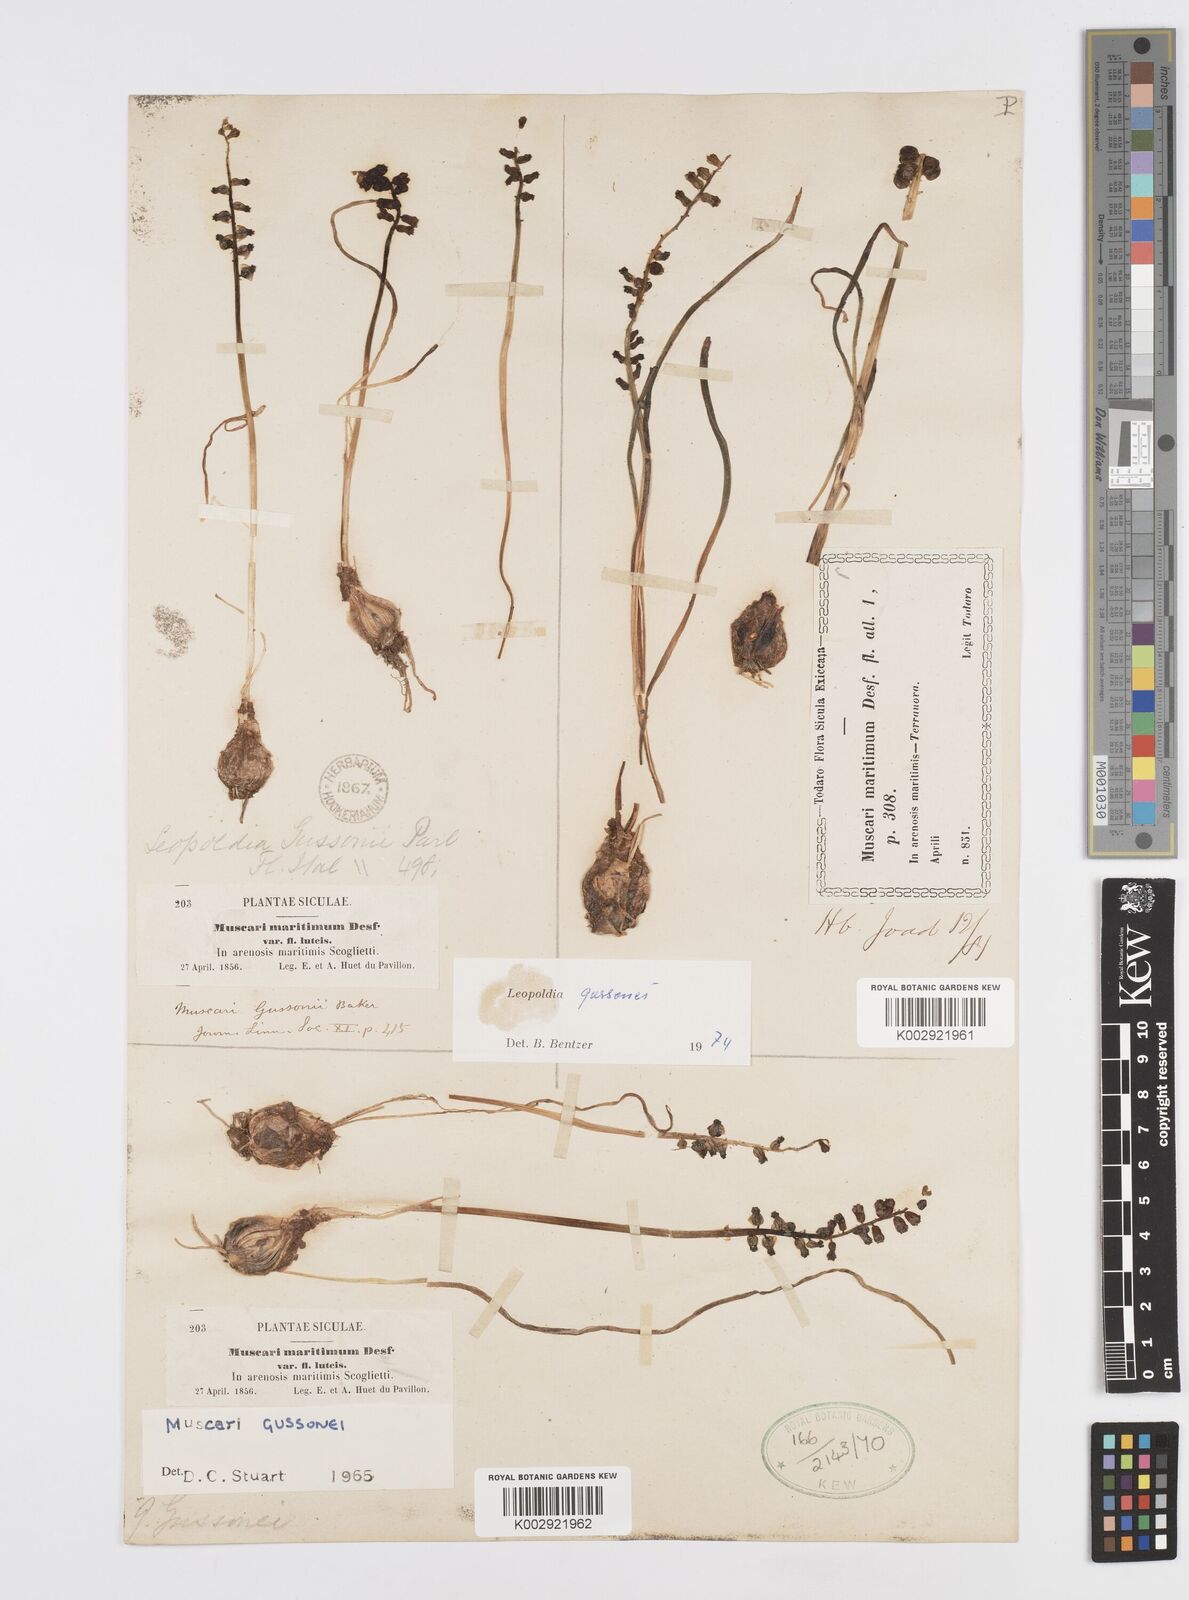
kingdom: Plantae
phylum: Tracheophyta
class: Liliopsida
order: Asparagales
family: Asparagaceae
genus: Muscari
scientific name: Muscari gussonei
